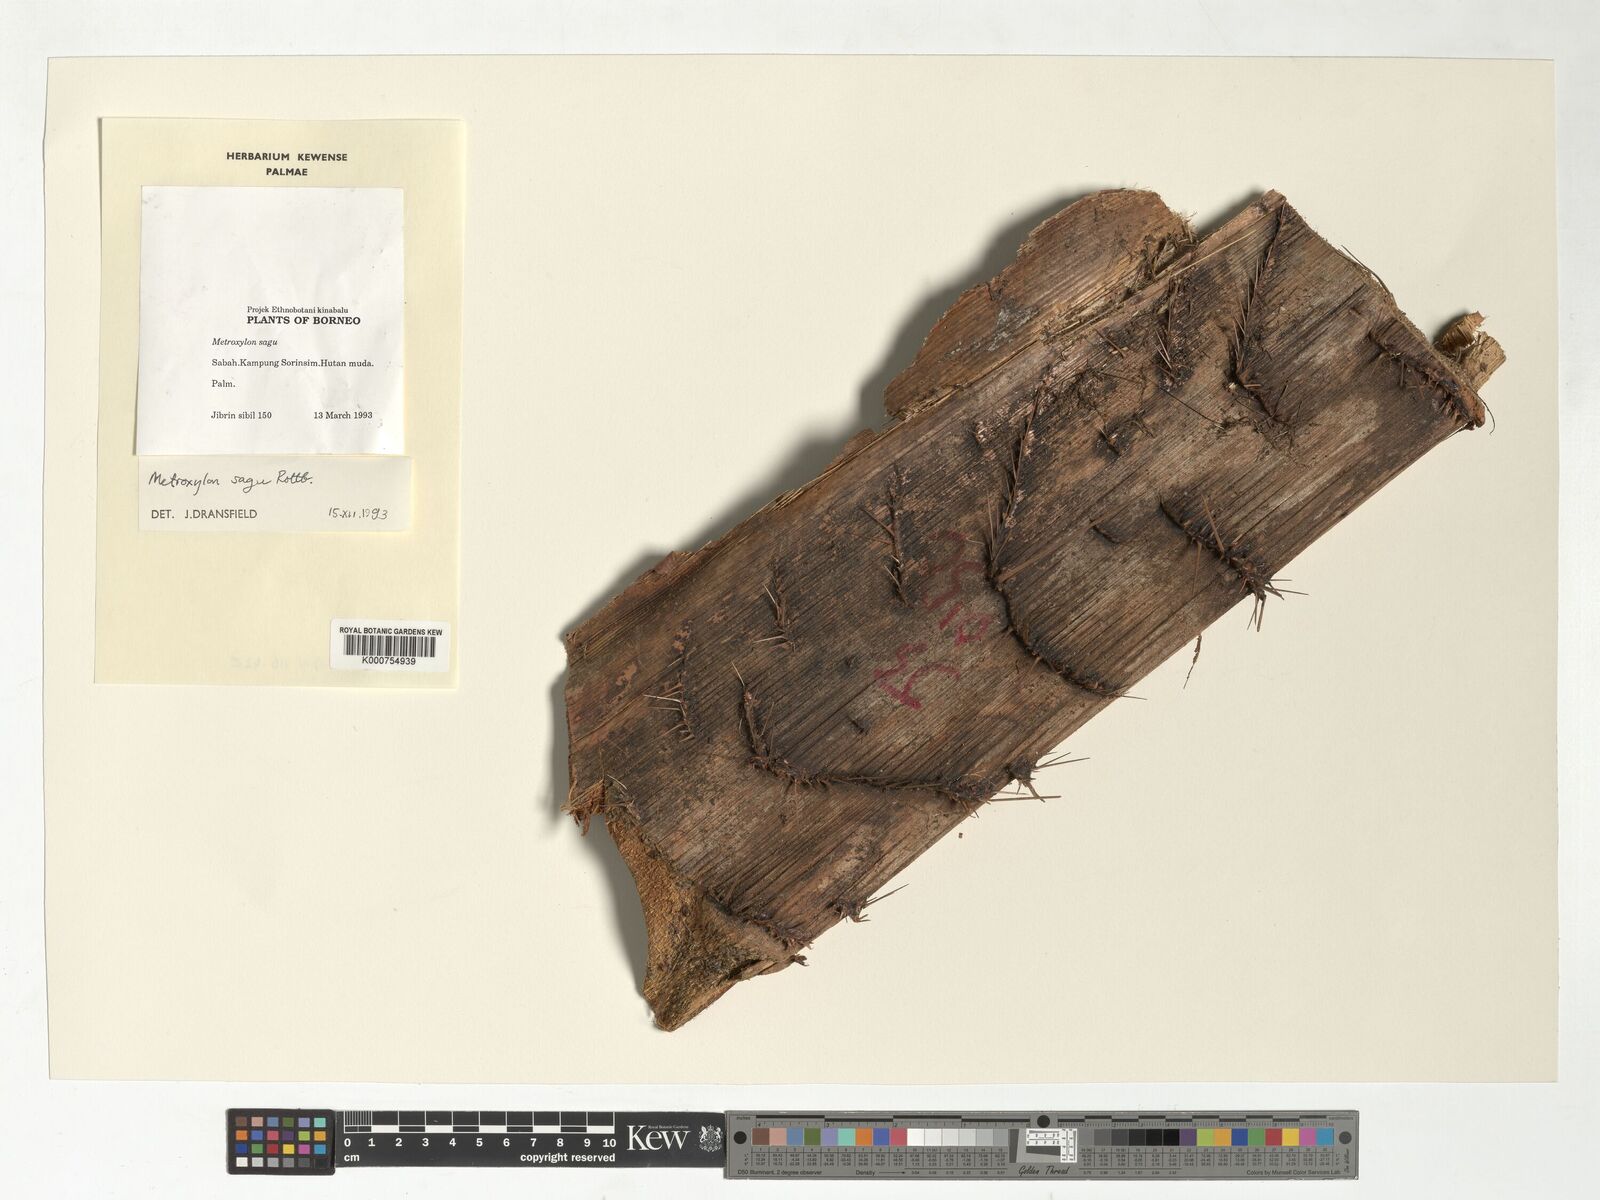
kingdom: Plantae
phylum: Tracheophyta
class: Liliopsida
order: Arecales
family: Arecaceae
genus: Metroxylon
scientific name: Metroxylon sagu
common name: Sago palm
